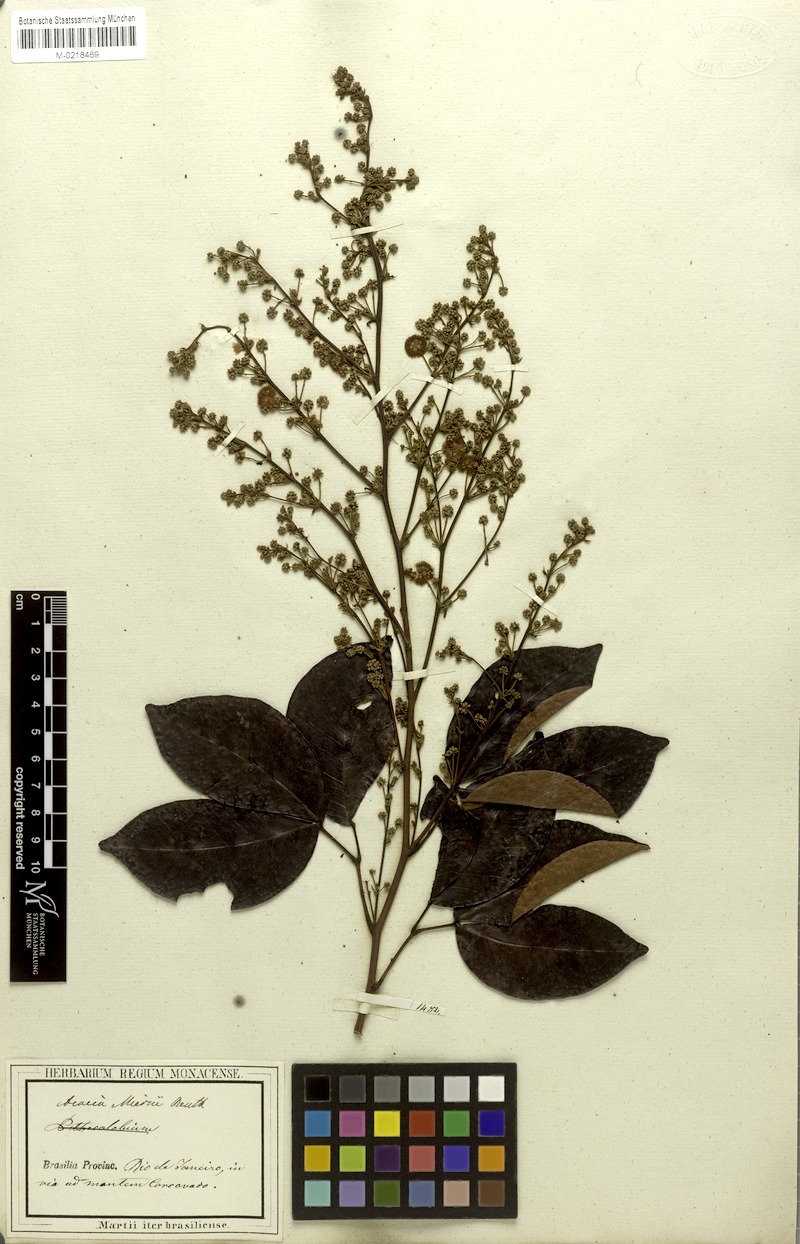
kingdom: Plantae
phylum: Tracheophyta
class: Magnoliopsida
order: Fabales
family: Fabaceae
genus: Parasenegalia
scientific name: Parasenegalia miersii
